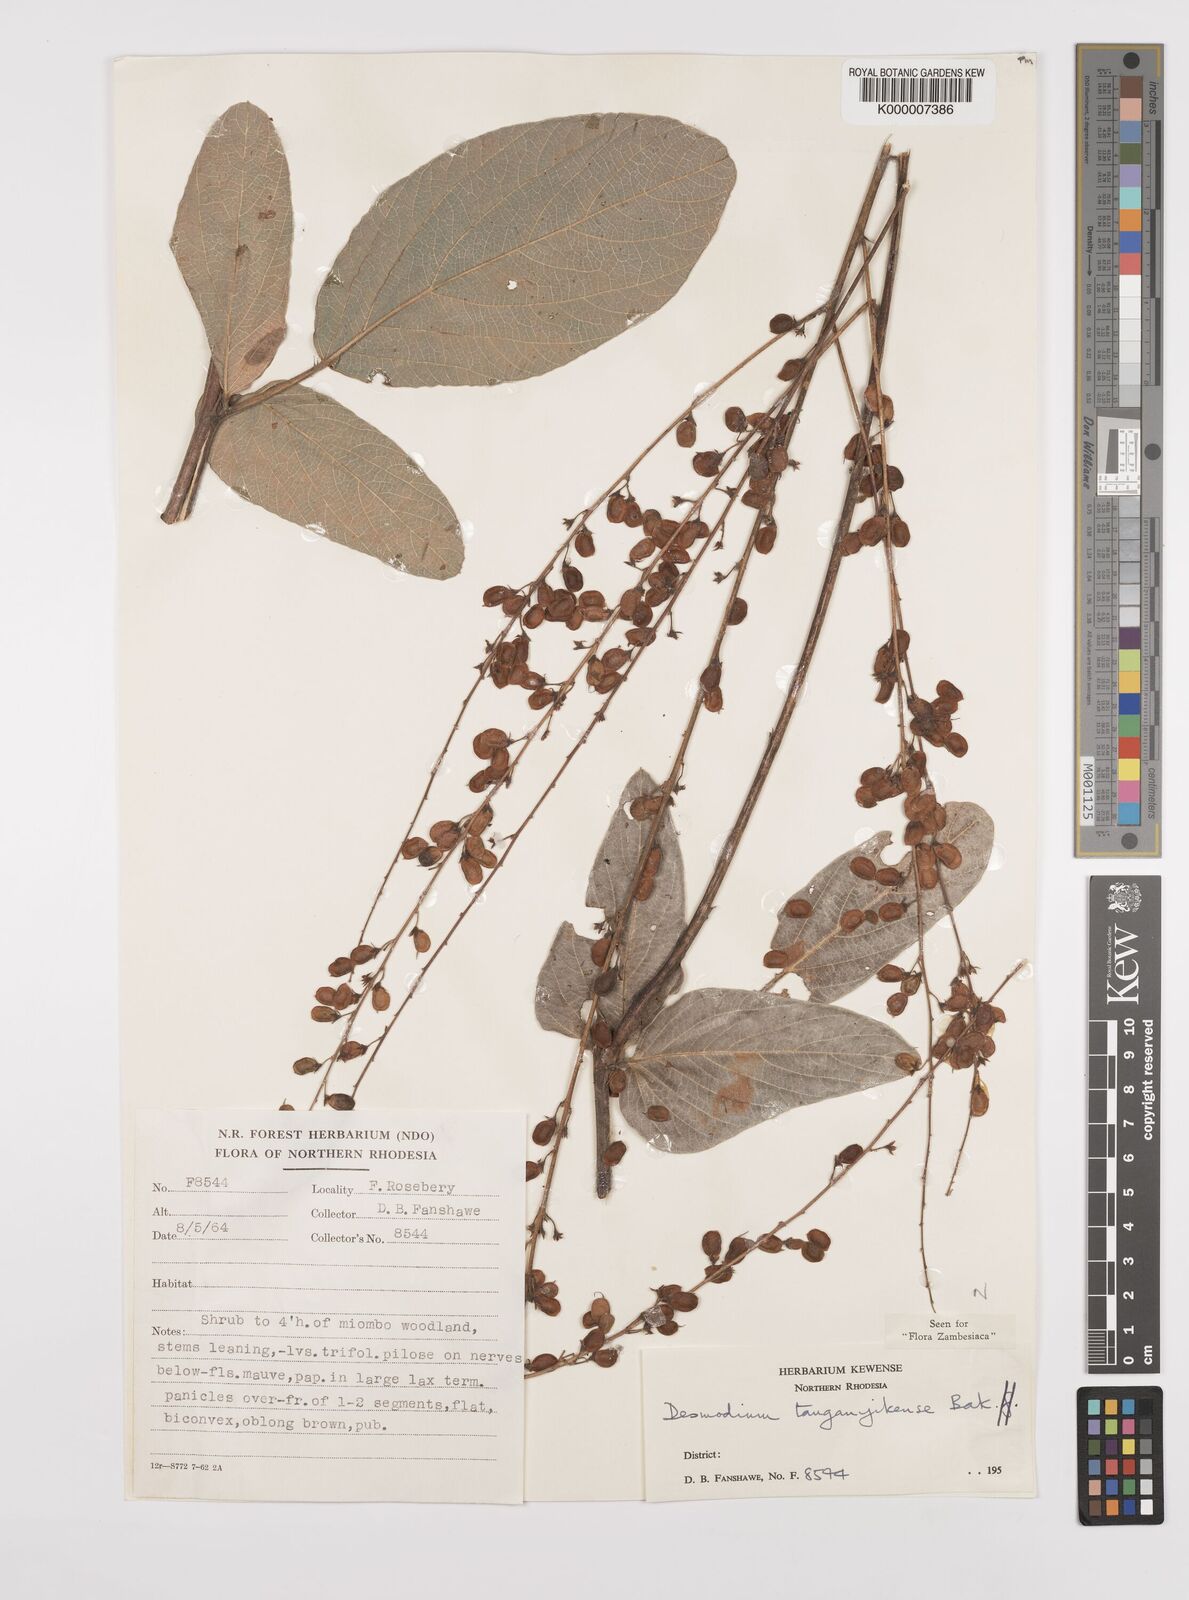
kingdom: Plantae
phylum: Tracheophyta
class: Magnoliopsida
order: Fabales
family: Fabaceae
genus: Pleurolobus
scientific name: Pleurolobus tanganyikensis
